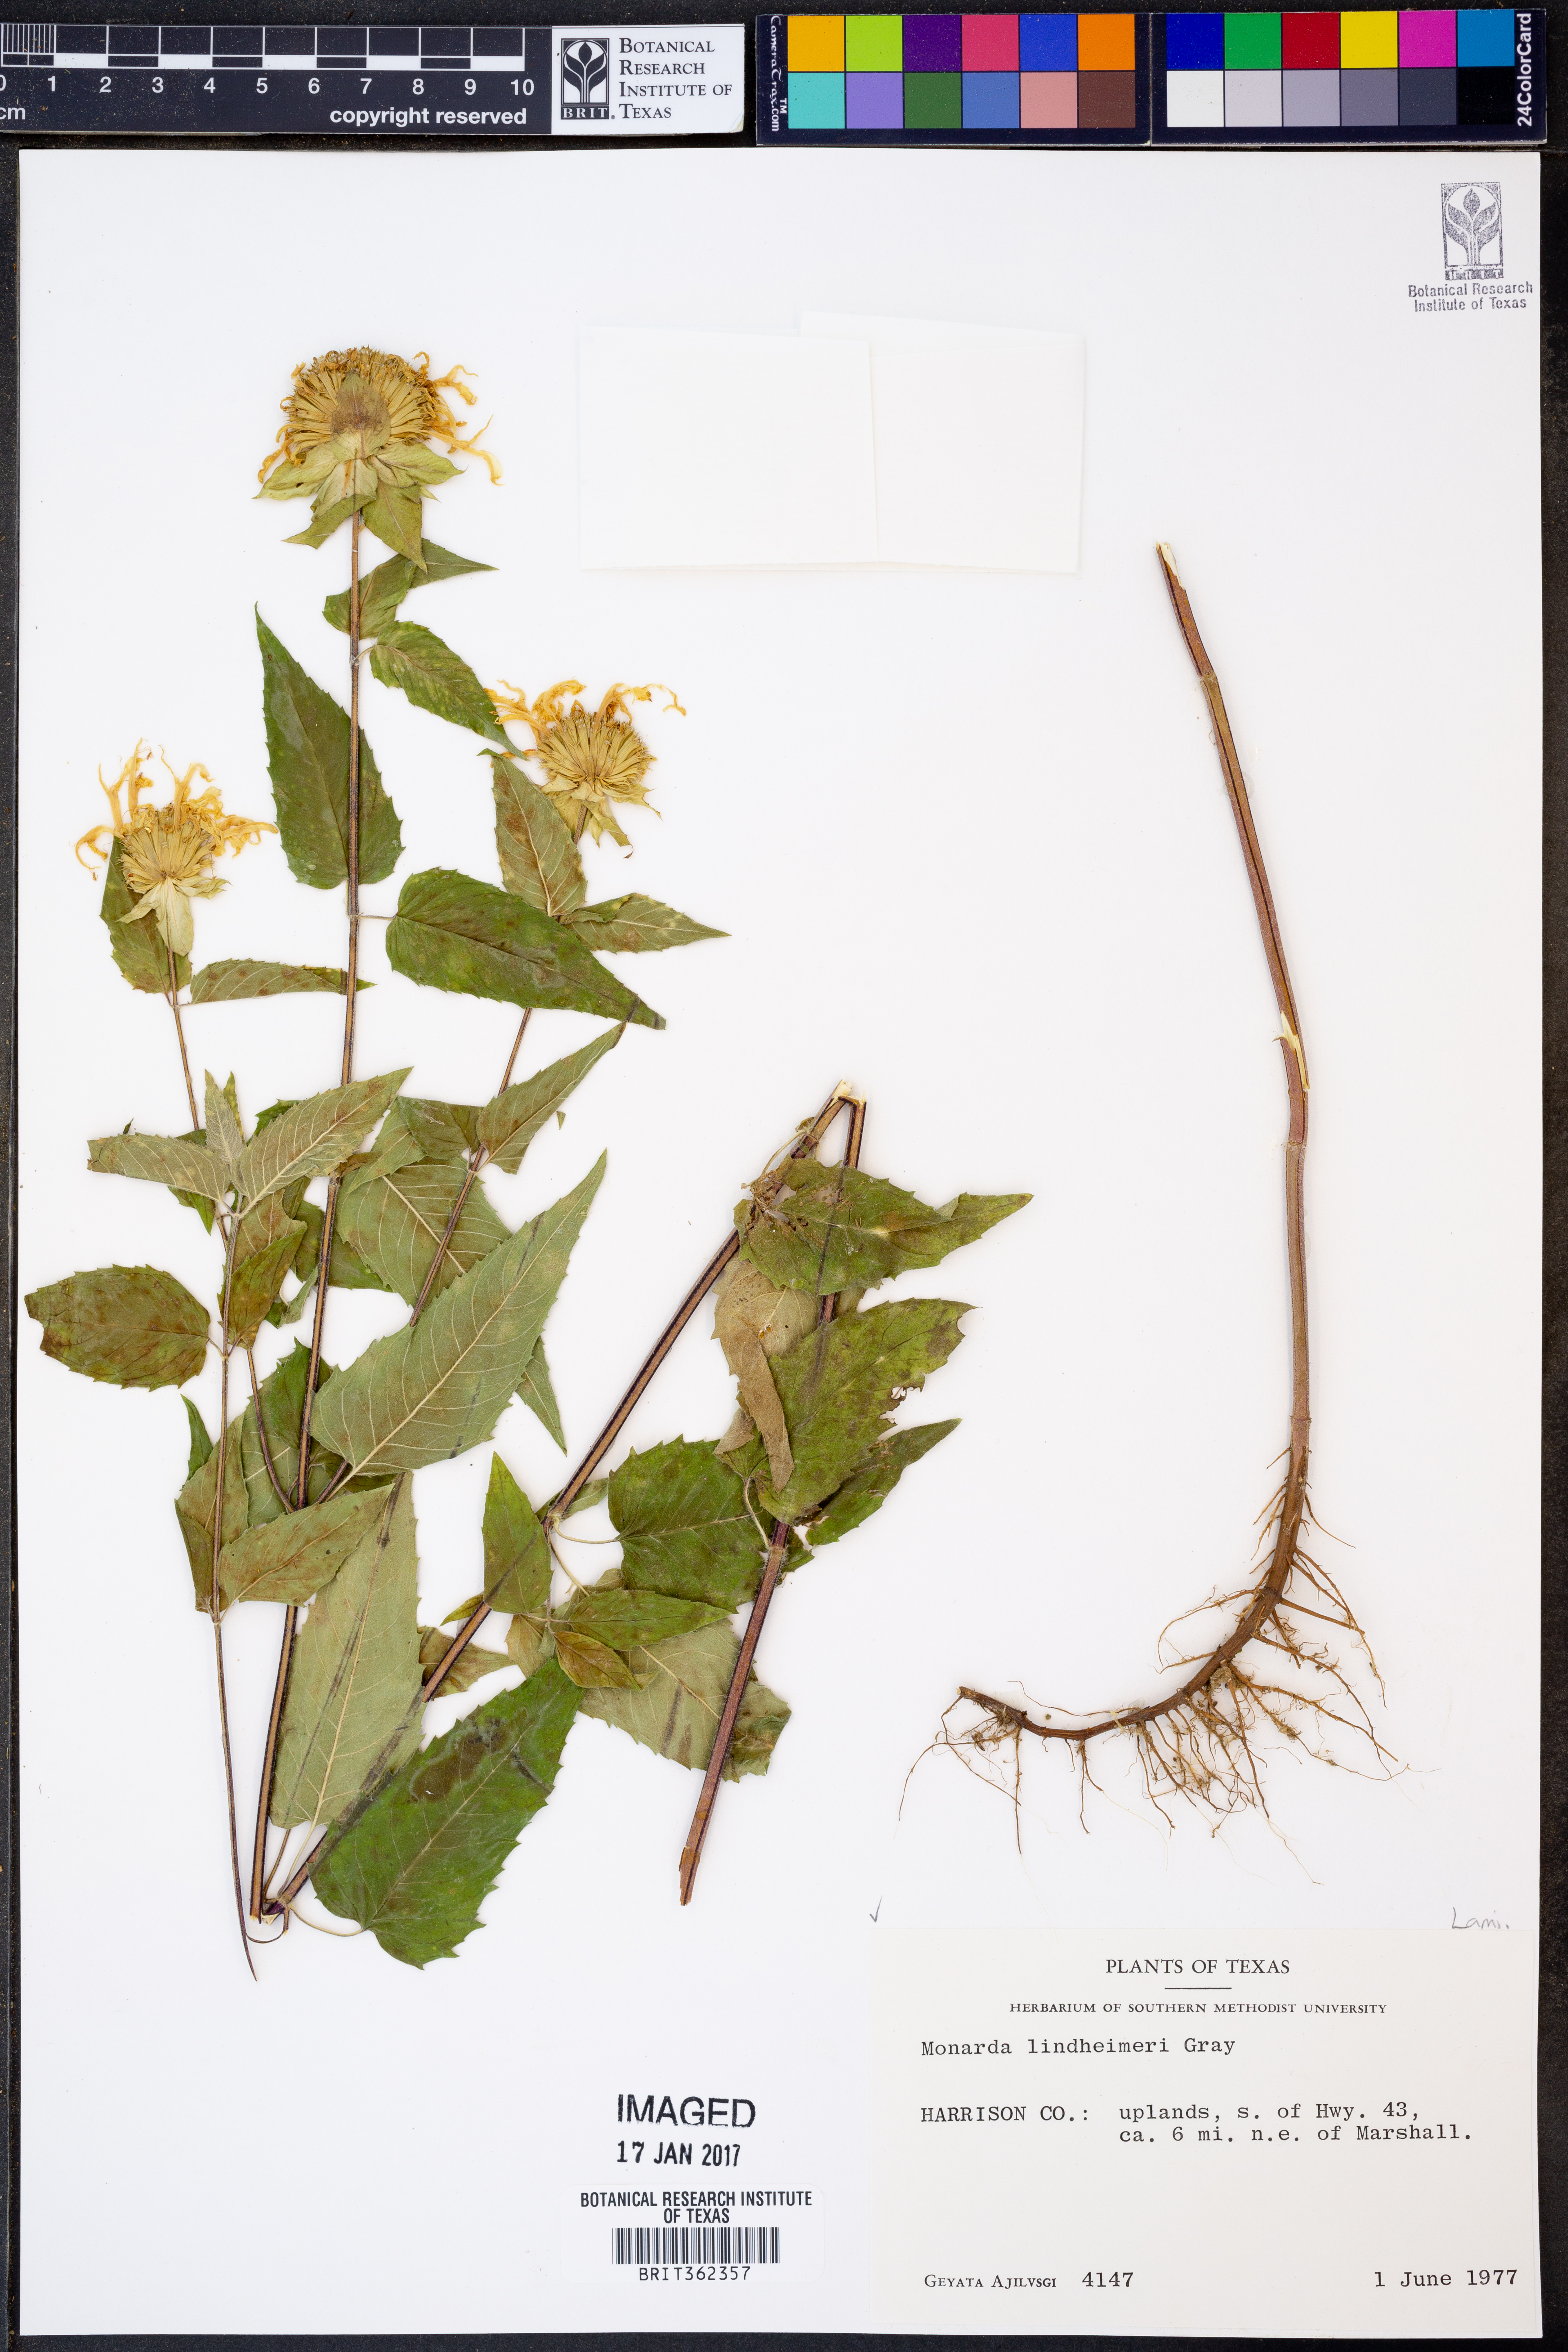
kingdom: Plantae
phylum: Tracheophyta
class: Magnoliopsida
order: Lamiales
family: Lamiaceae
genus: Monarda
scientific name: Monarda lindheimeri
